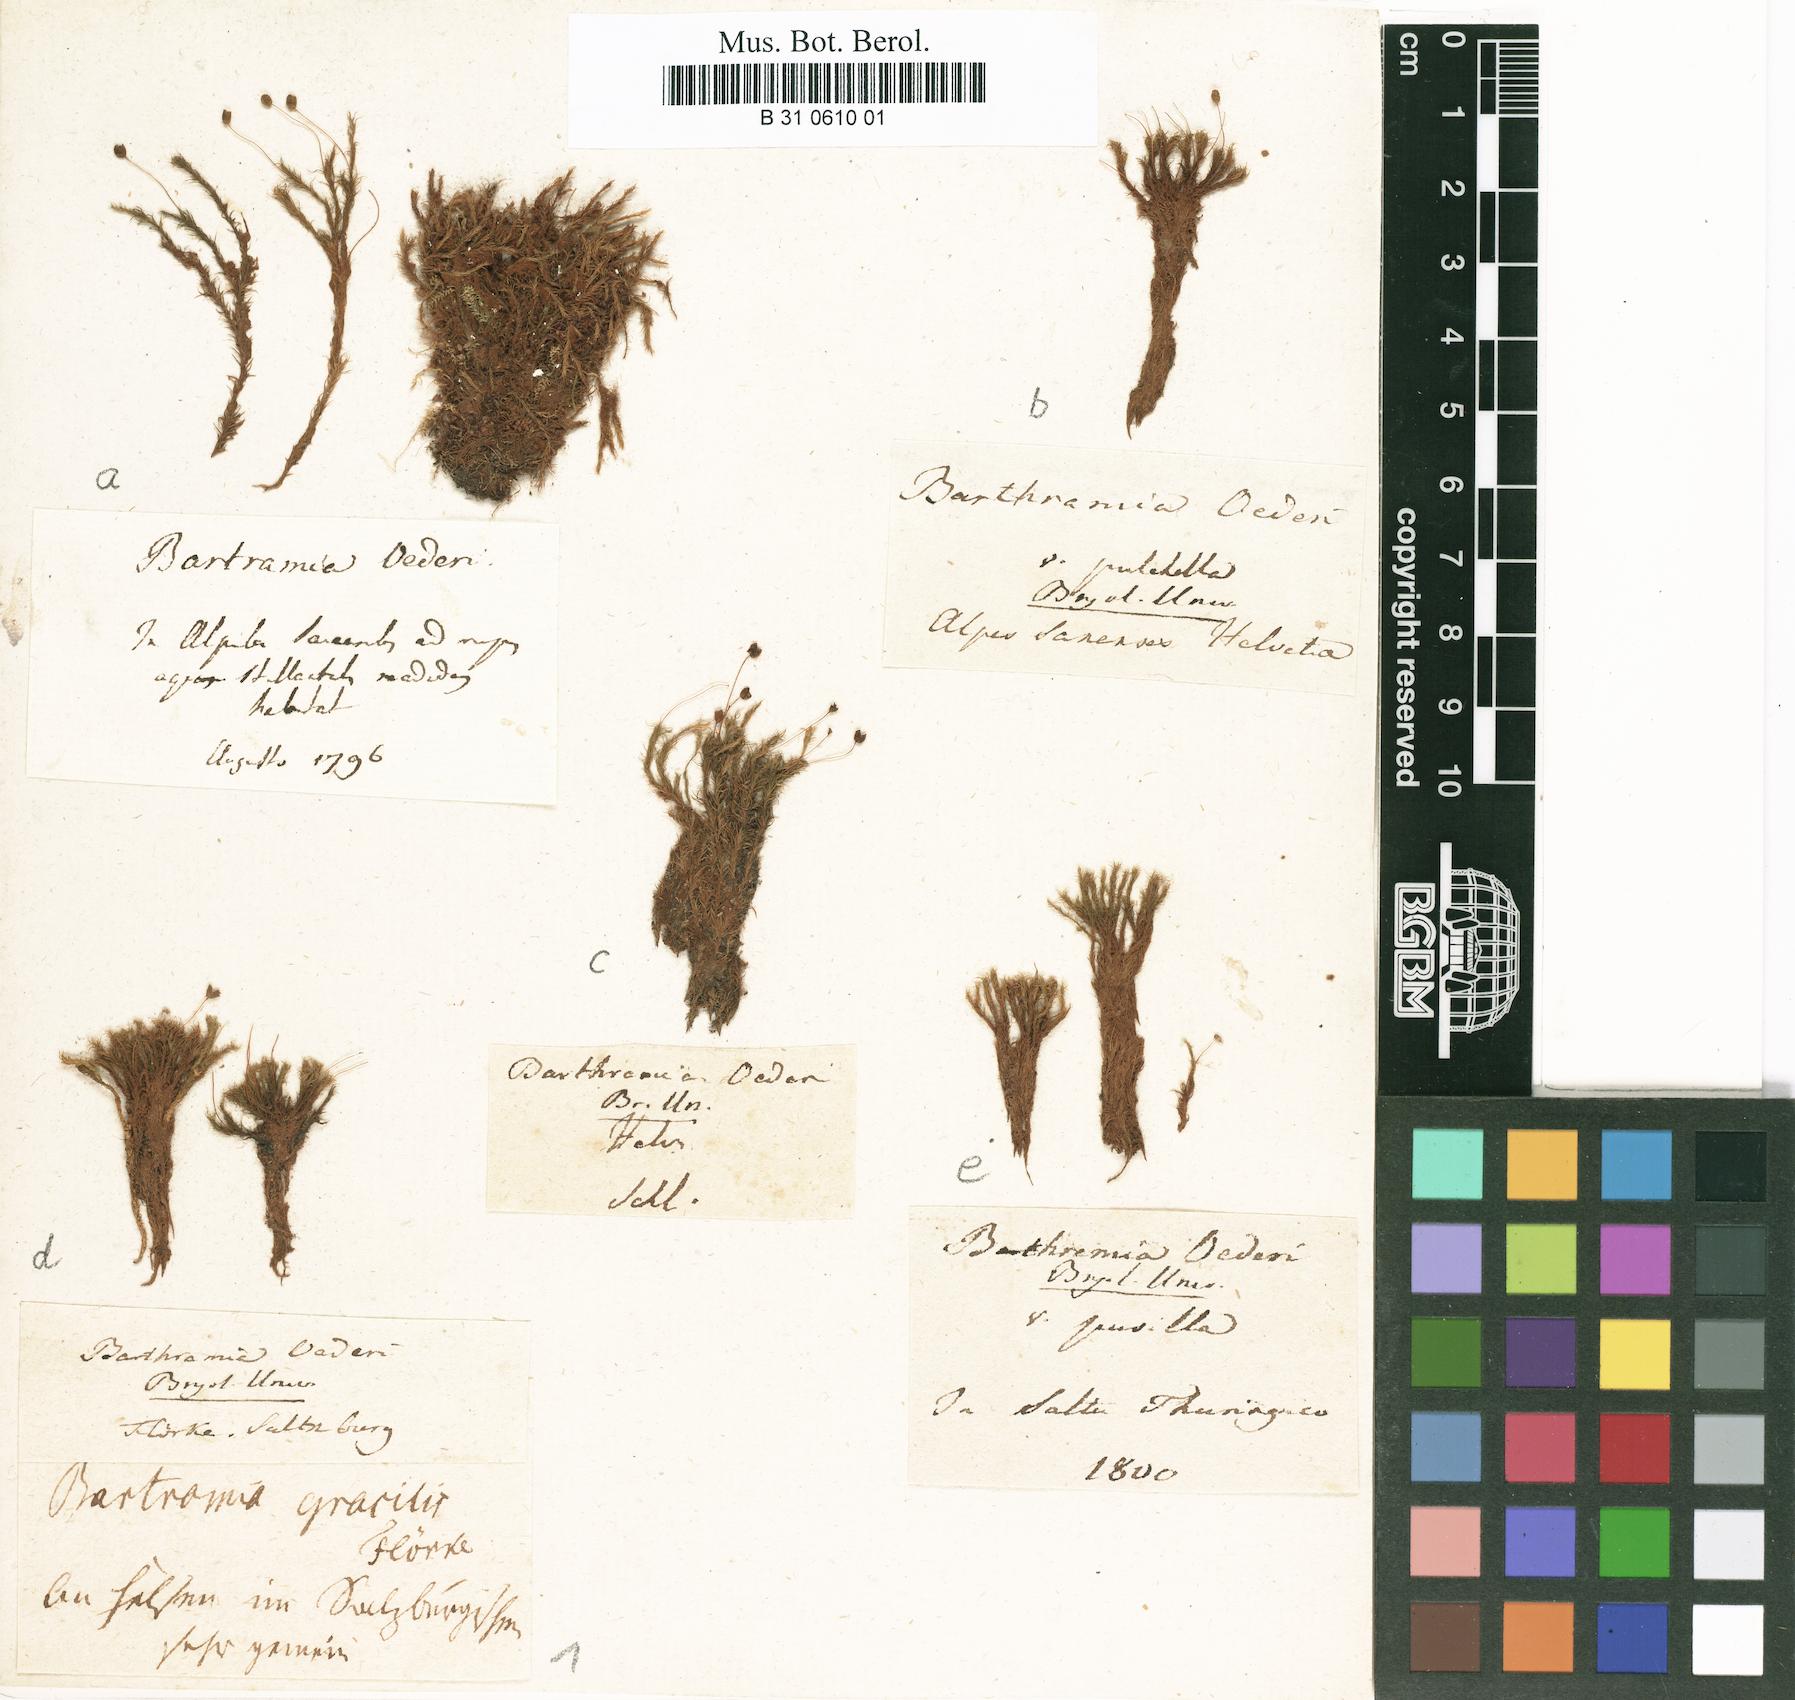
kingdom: Plantae
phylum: Bryophyta
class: Bryopsida
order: Bartramiales
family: Bartramiaceae
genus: Plagiopus
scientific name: Plagiopus oederianus
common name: Oeder's apple moss
